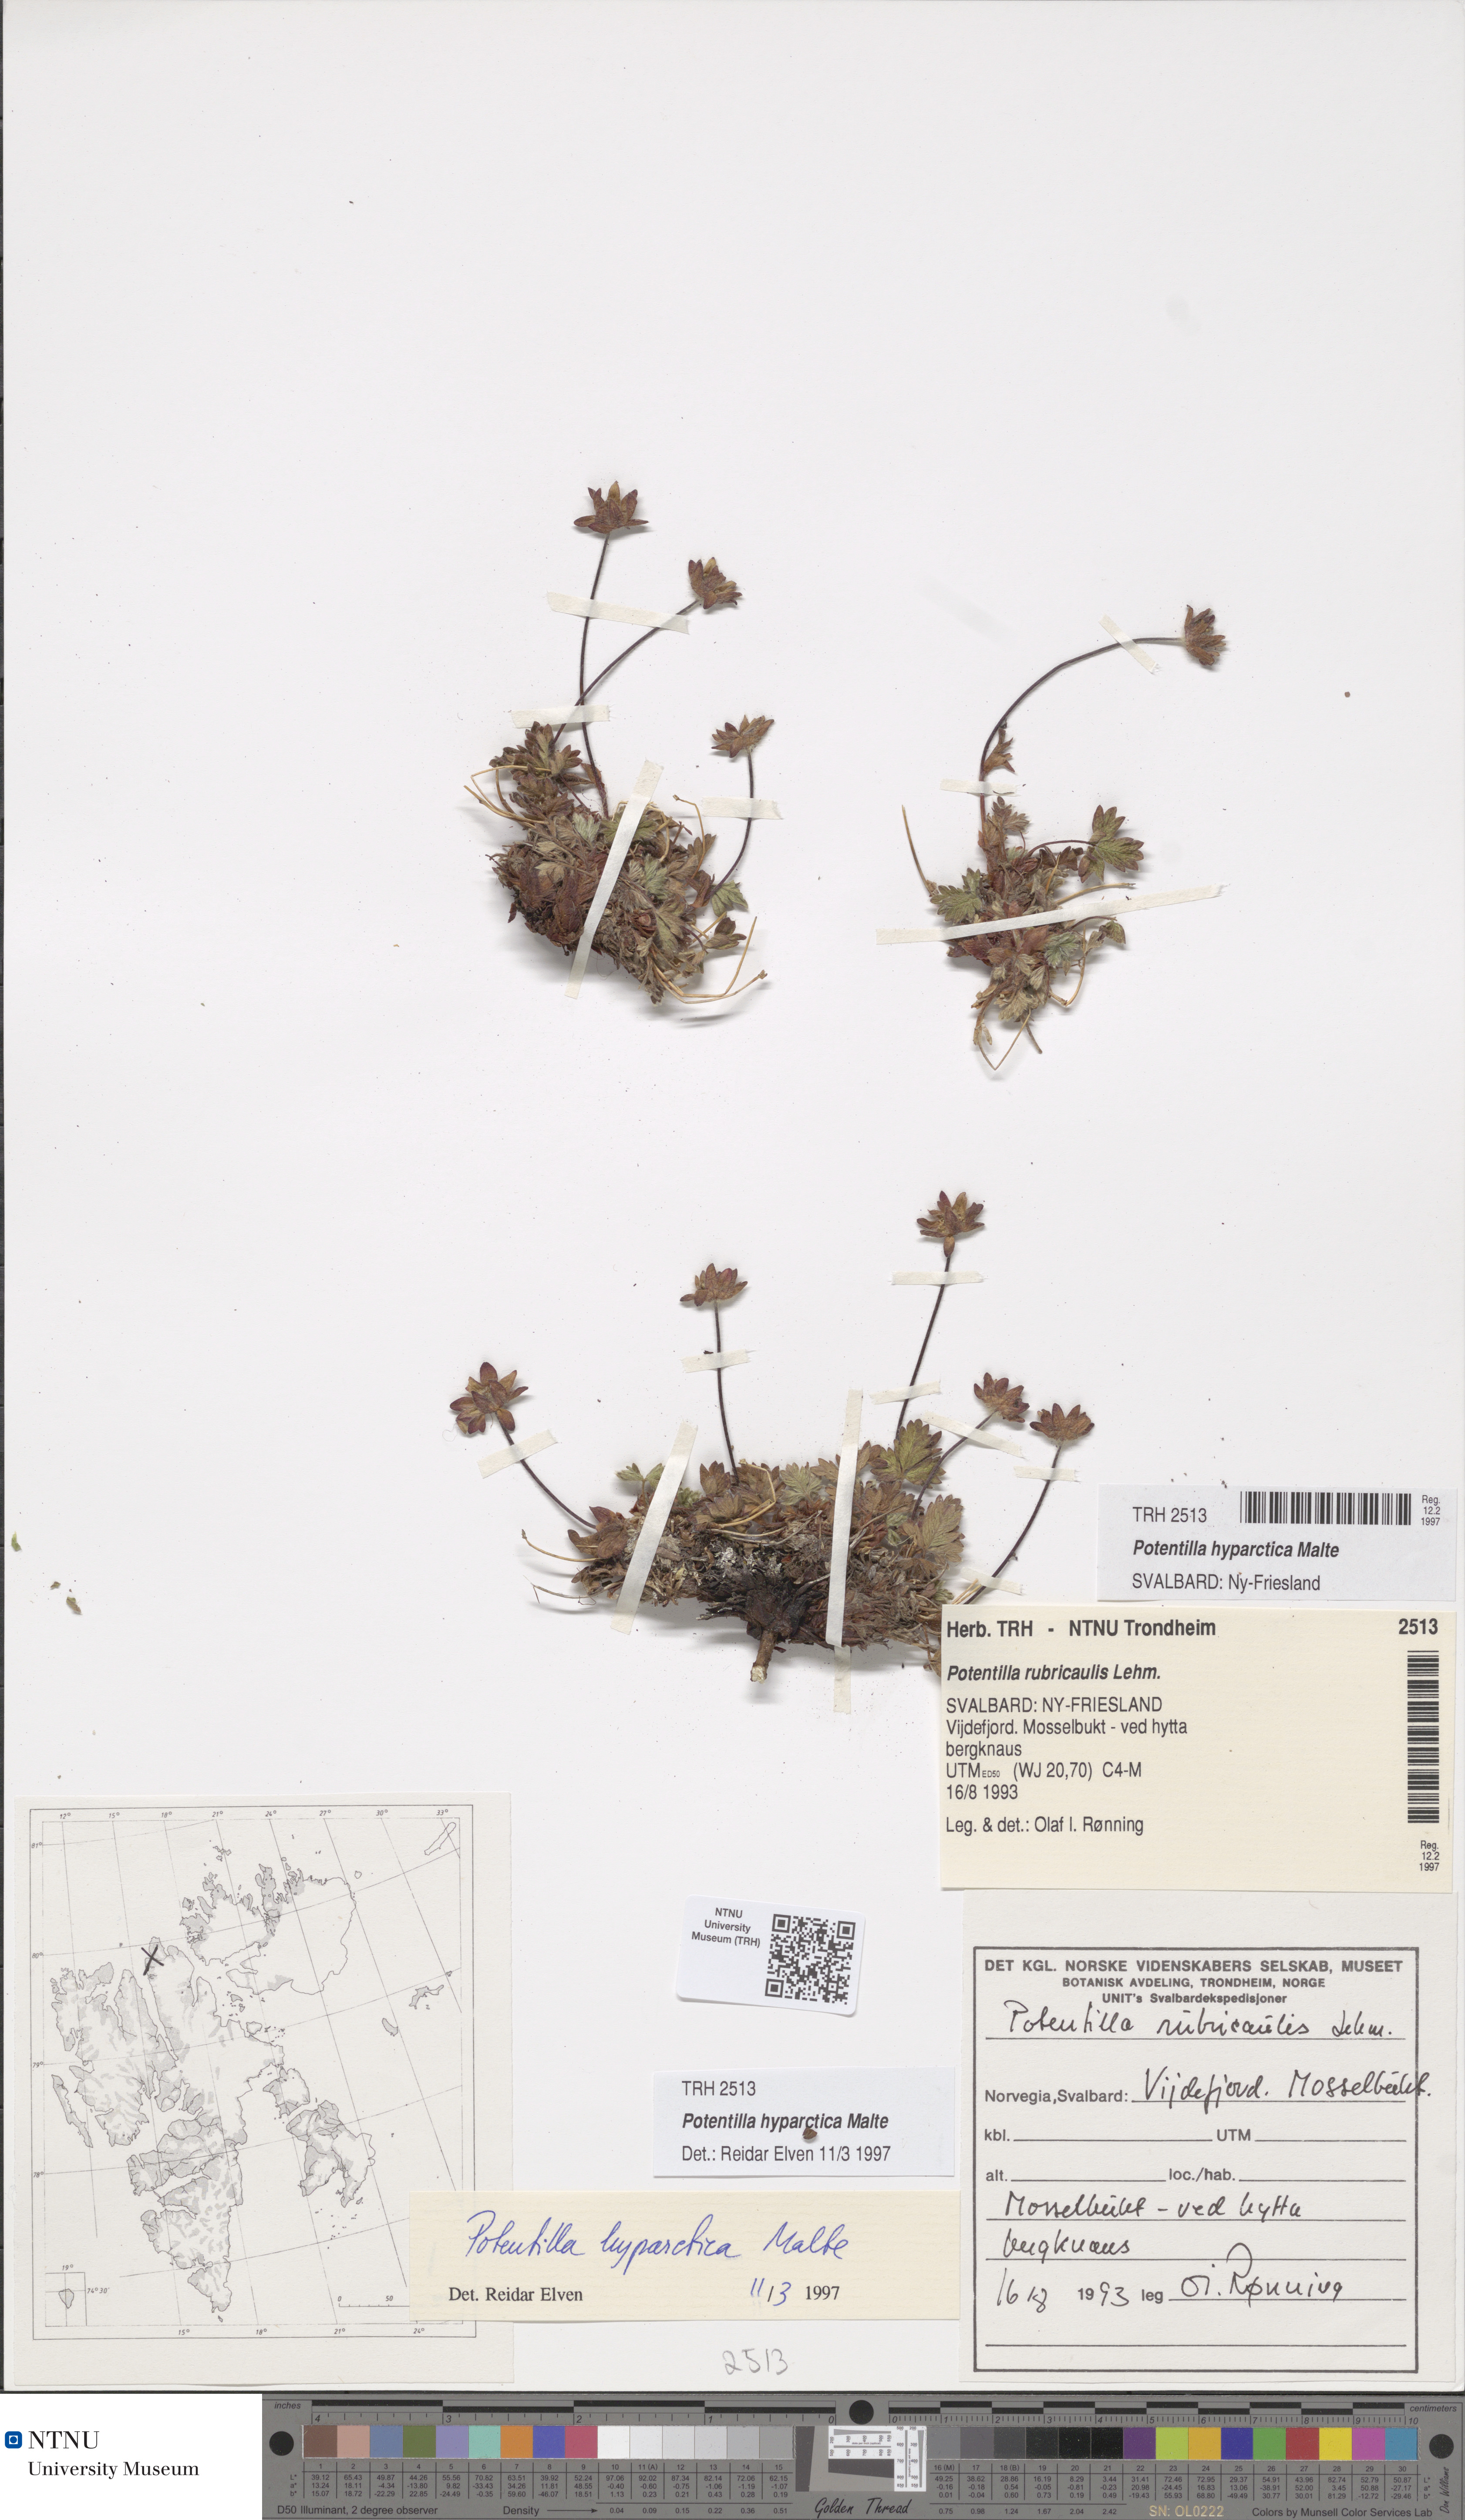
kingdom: Plantae
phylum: Tracheophyta
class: Magnoliopsida
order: Rosales
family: Rosaceae
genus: Potentilla
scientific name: Potentilla hyparctica
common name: Arctic cinquefoil
